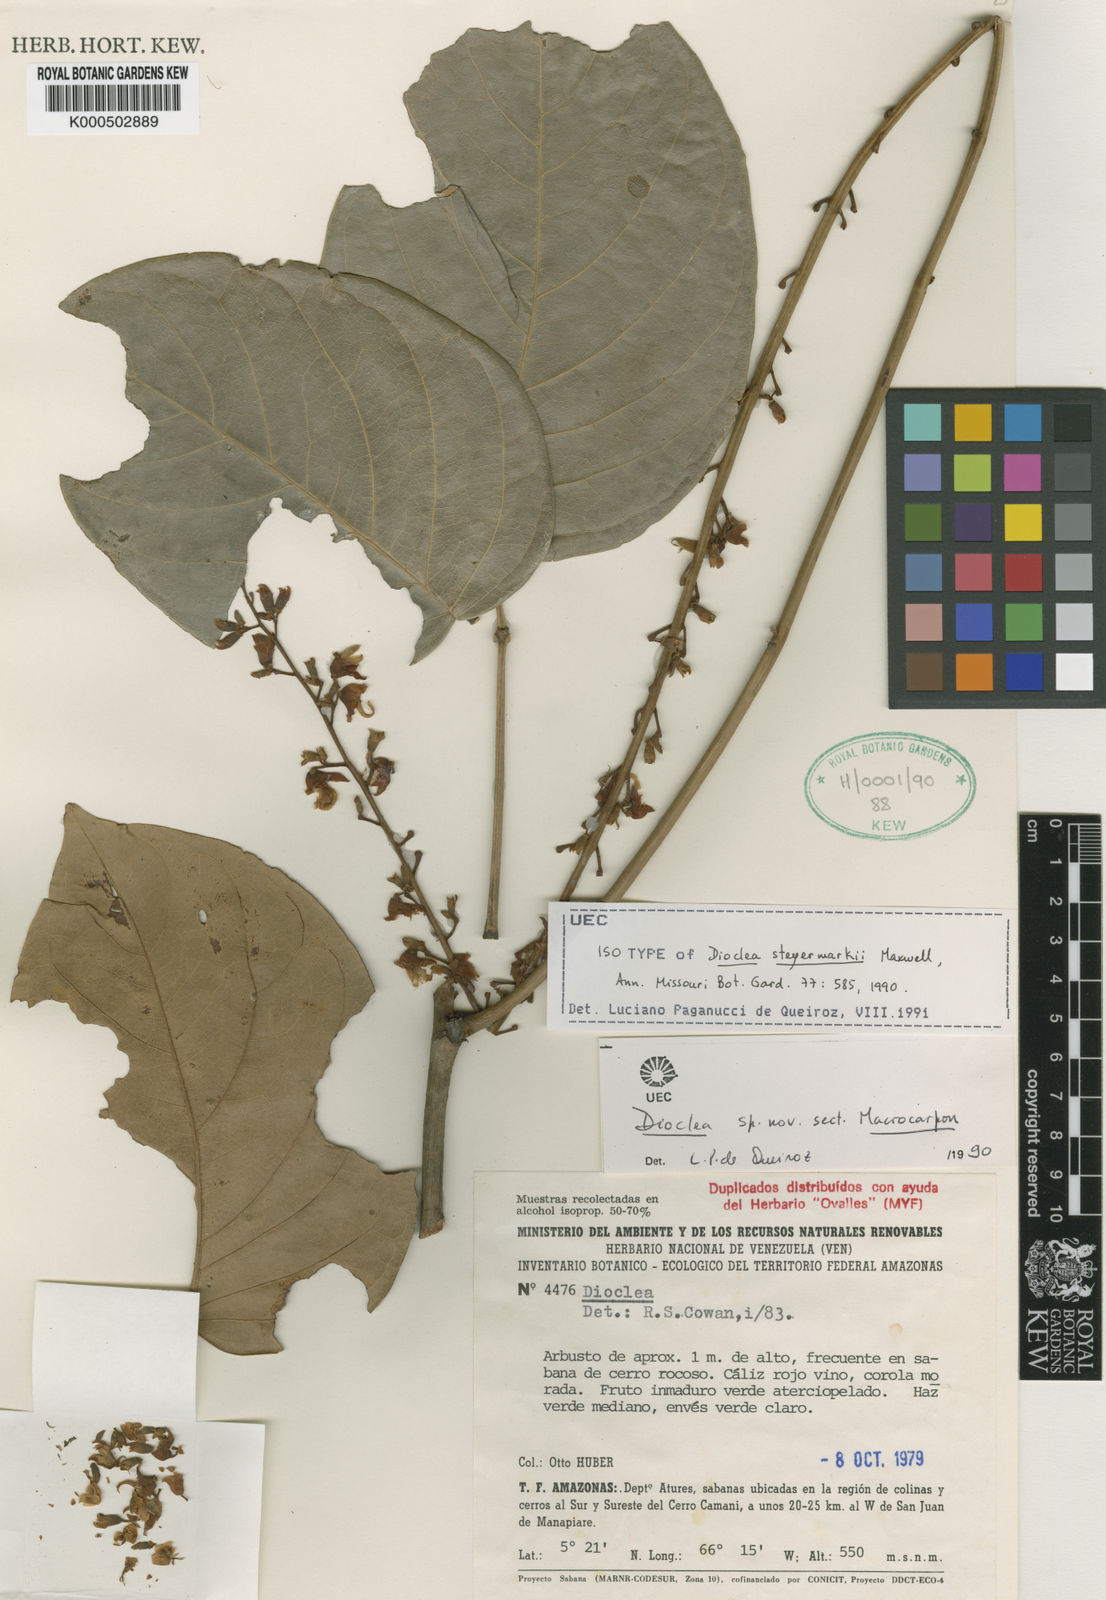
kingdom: Plantae
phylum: Tracheophyta
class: Magnoliopsida
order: Fabales
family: Fabaceae
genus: Macropsychanthus
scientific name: Macropsychanthus rigidus
